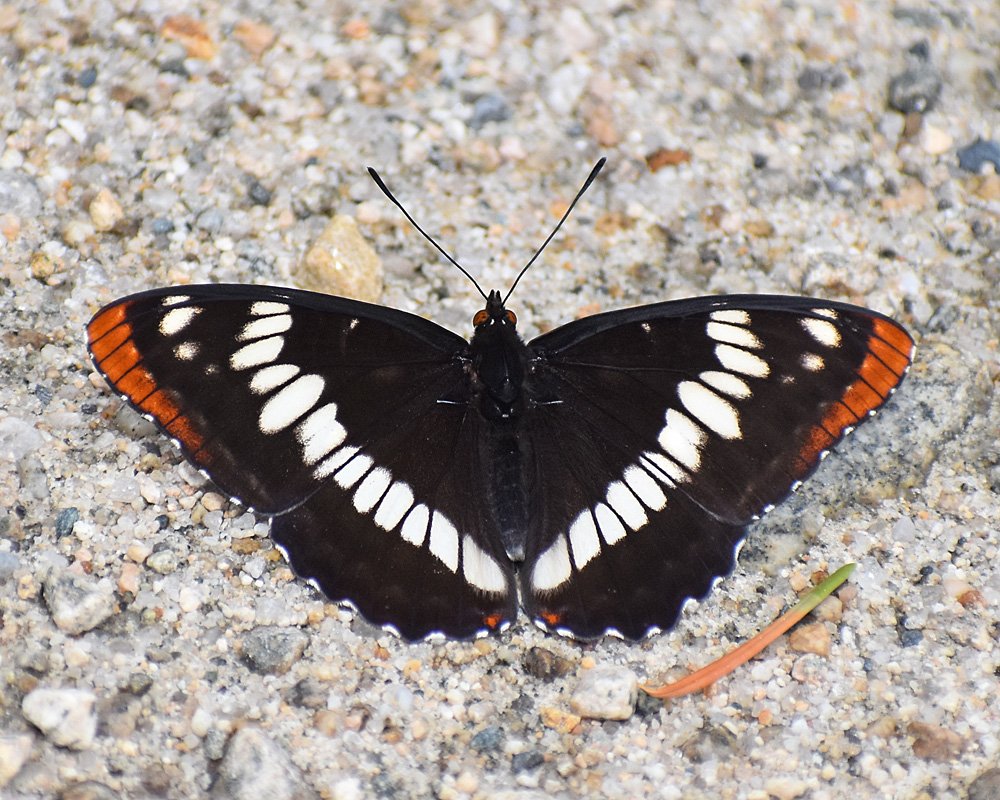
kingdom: Animalia
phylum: Arthropoda
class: Insecta
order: Lepidoptera
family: Nymphalidae
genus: Limenitis
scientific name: Limenitis lorquini
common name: Lorquin's Admiral
